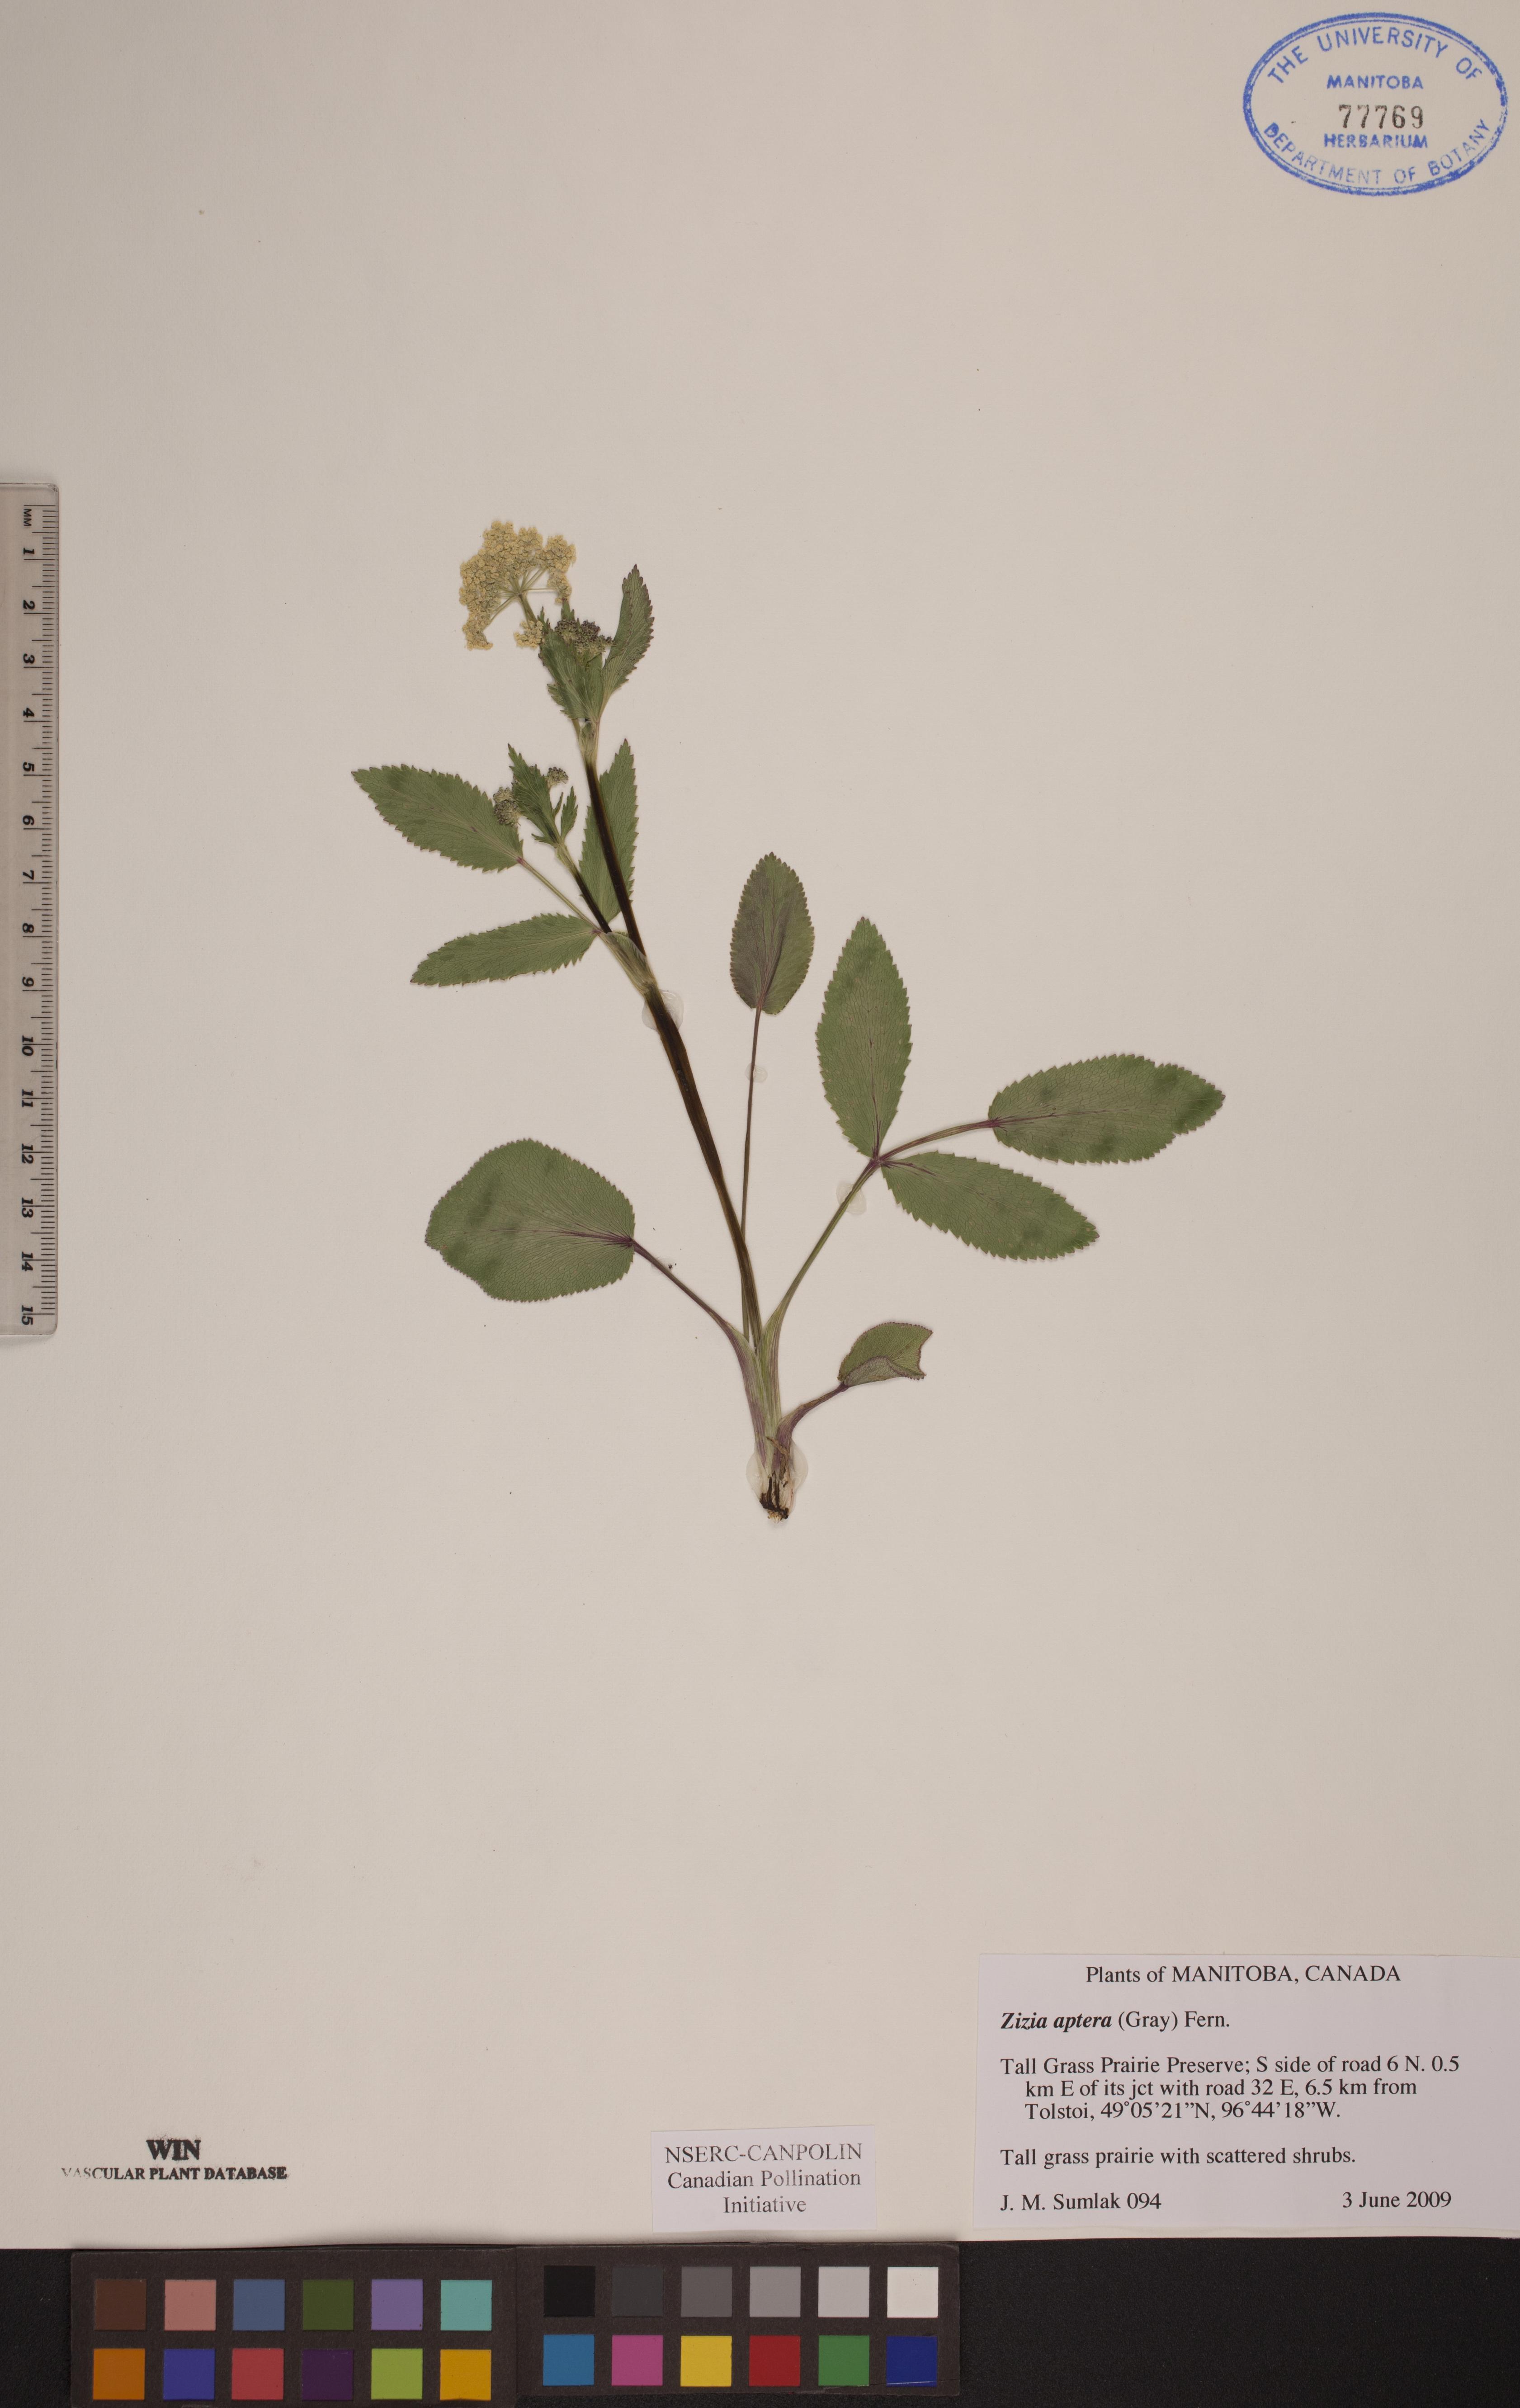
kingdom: Plantae
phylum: Tracheophyta
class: Magnoliopsida
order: Apiales
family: Apiaceae
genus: Zizia
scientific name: Zizia aptera
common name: Heart-leaved alexanders
